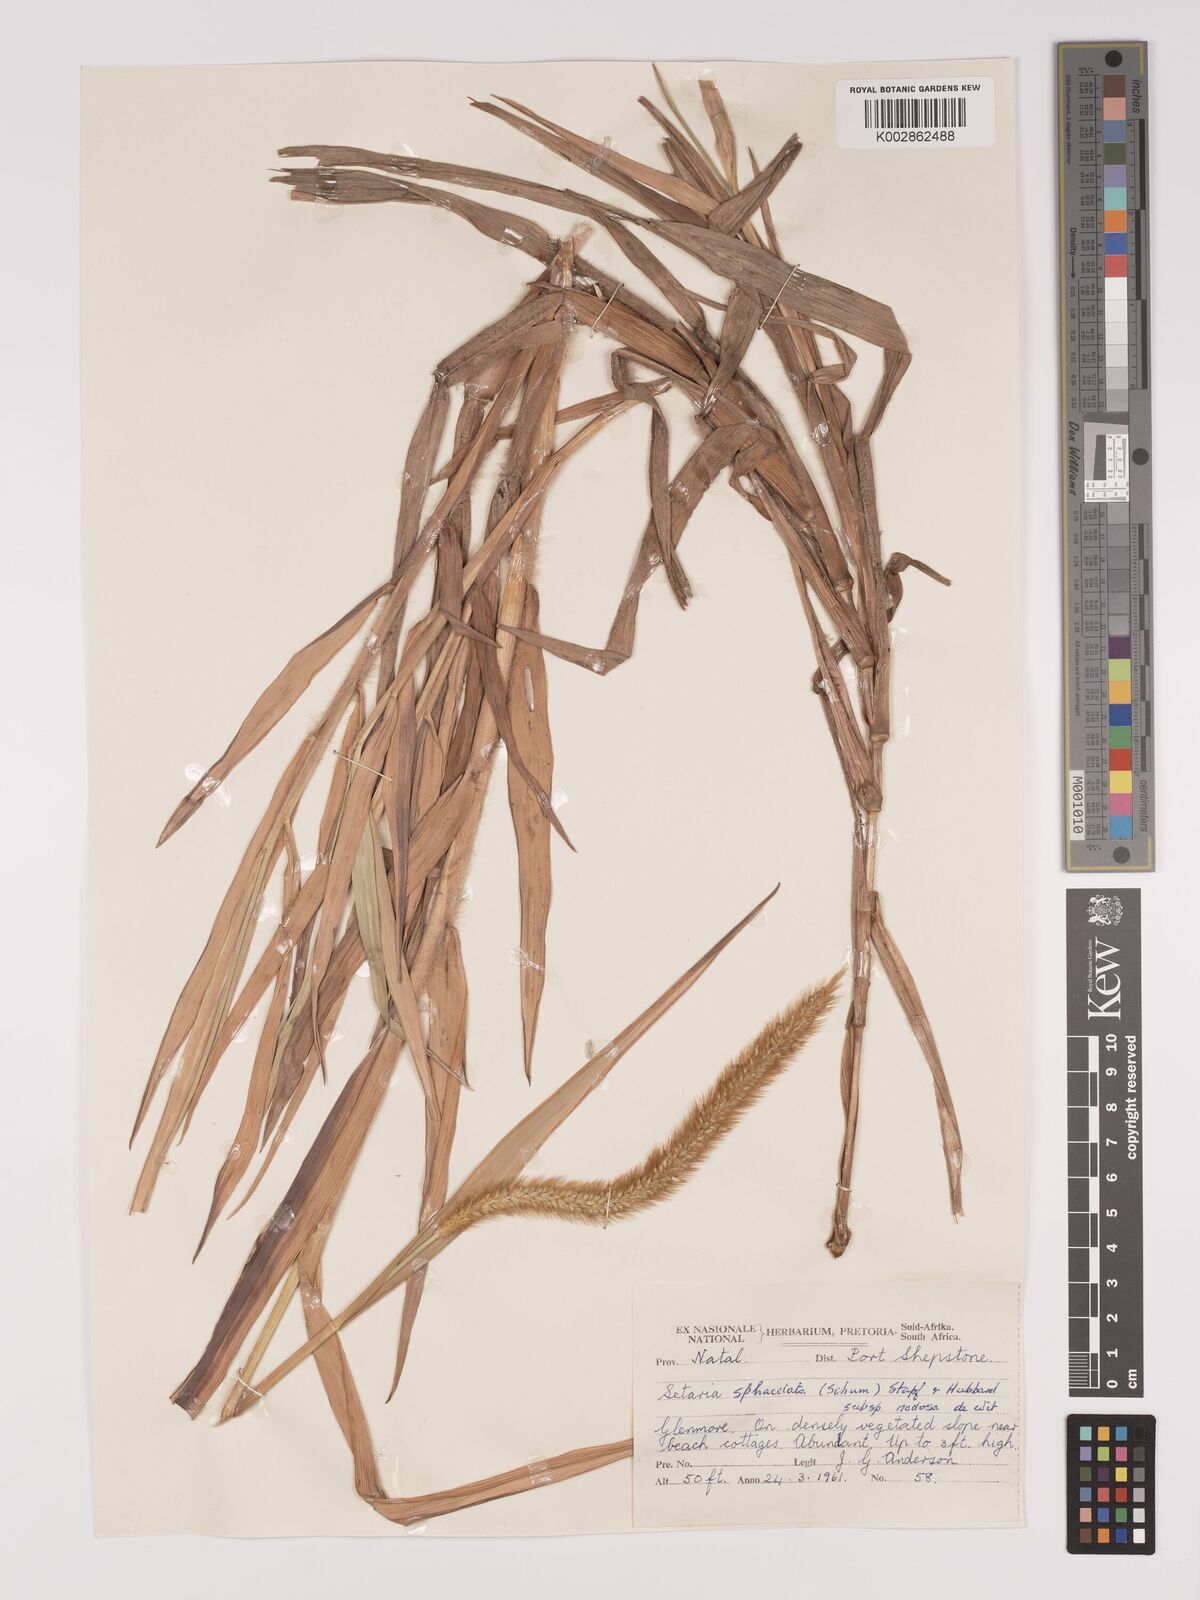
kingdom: Plantae
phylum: Tracheophyta
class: Liliopsida
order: Poales
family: Poaceae
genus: Setaria
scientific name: Setaria sphacelata
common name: African bristlegrass
